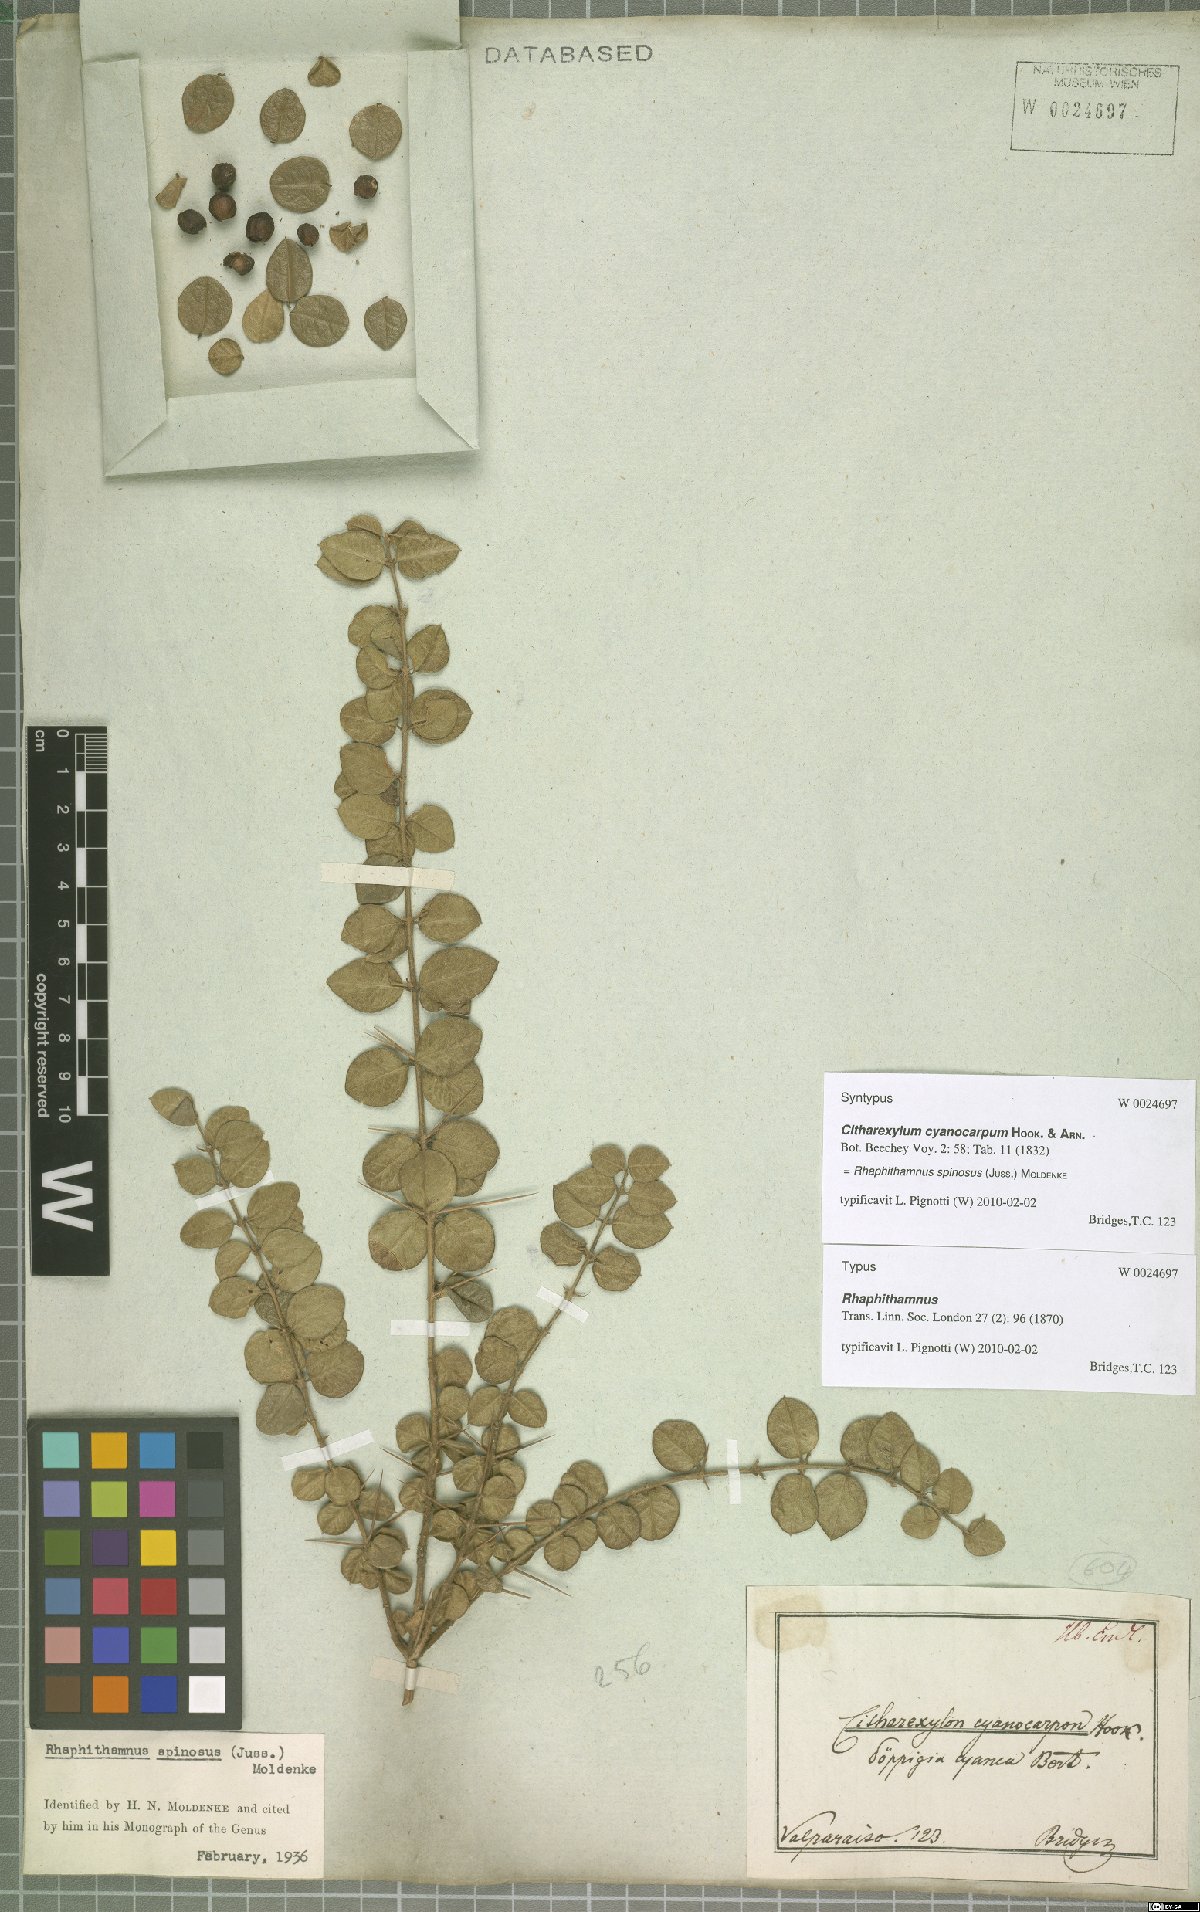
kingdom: Plantae
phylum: Tracheophyta
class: Magnoliopsida
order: Lamiales
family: Verbenaceae
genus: Rhaphithamnus
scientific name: Rhaphithamnus spinosus
